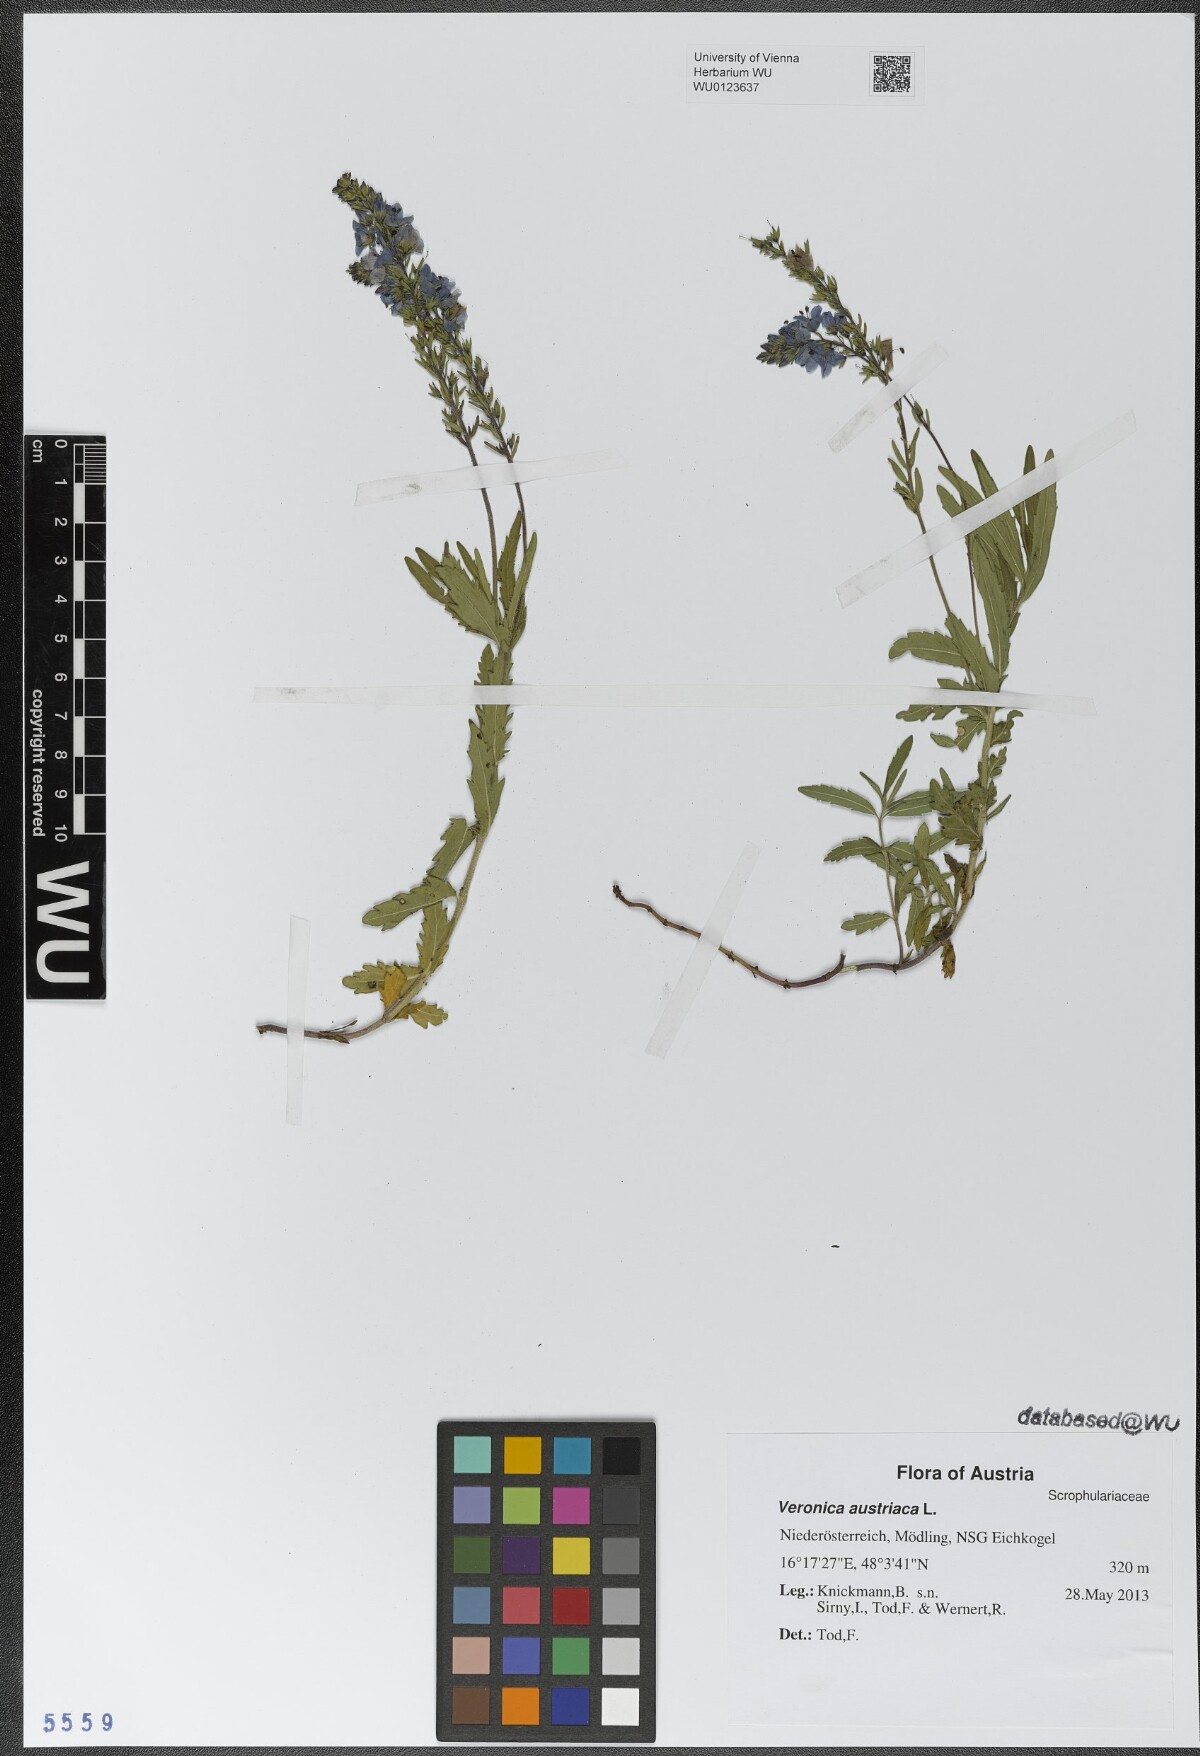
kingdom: Plantae
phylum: Tracheophyta
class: Magnoliopsida
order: Lamiales
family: Plantaginaceae
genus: Veronica
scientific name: Veronica austriaca
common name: Large speedwell
